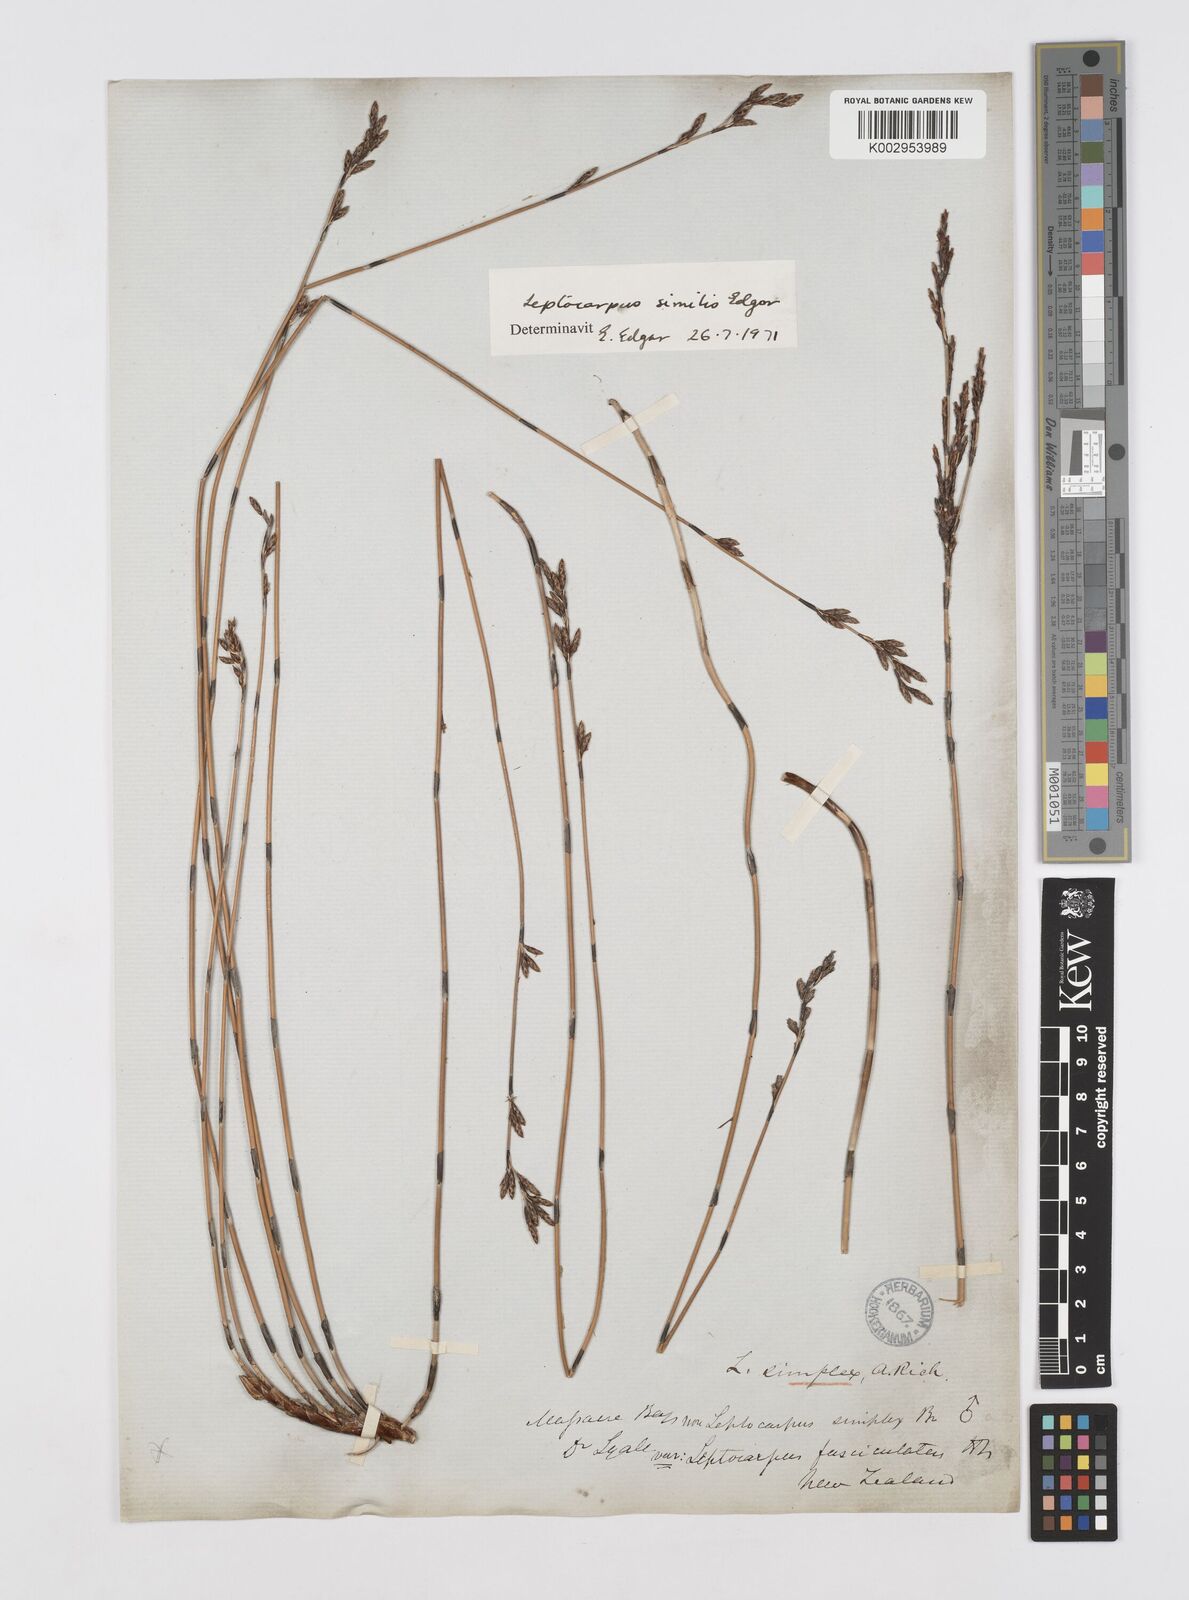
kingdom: Plantae
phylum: Tracheophyta
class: Liliopsida
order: Poales
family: Restionaceae
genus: Apodasmia
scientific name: Apodasmia similis
